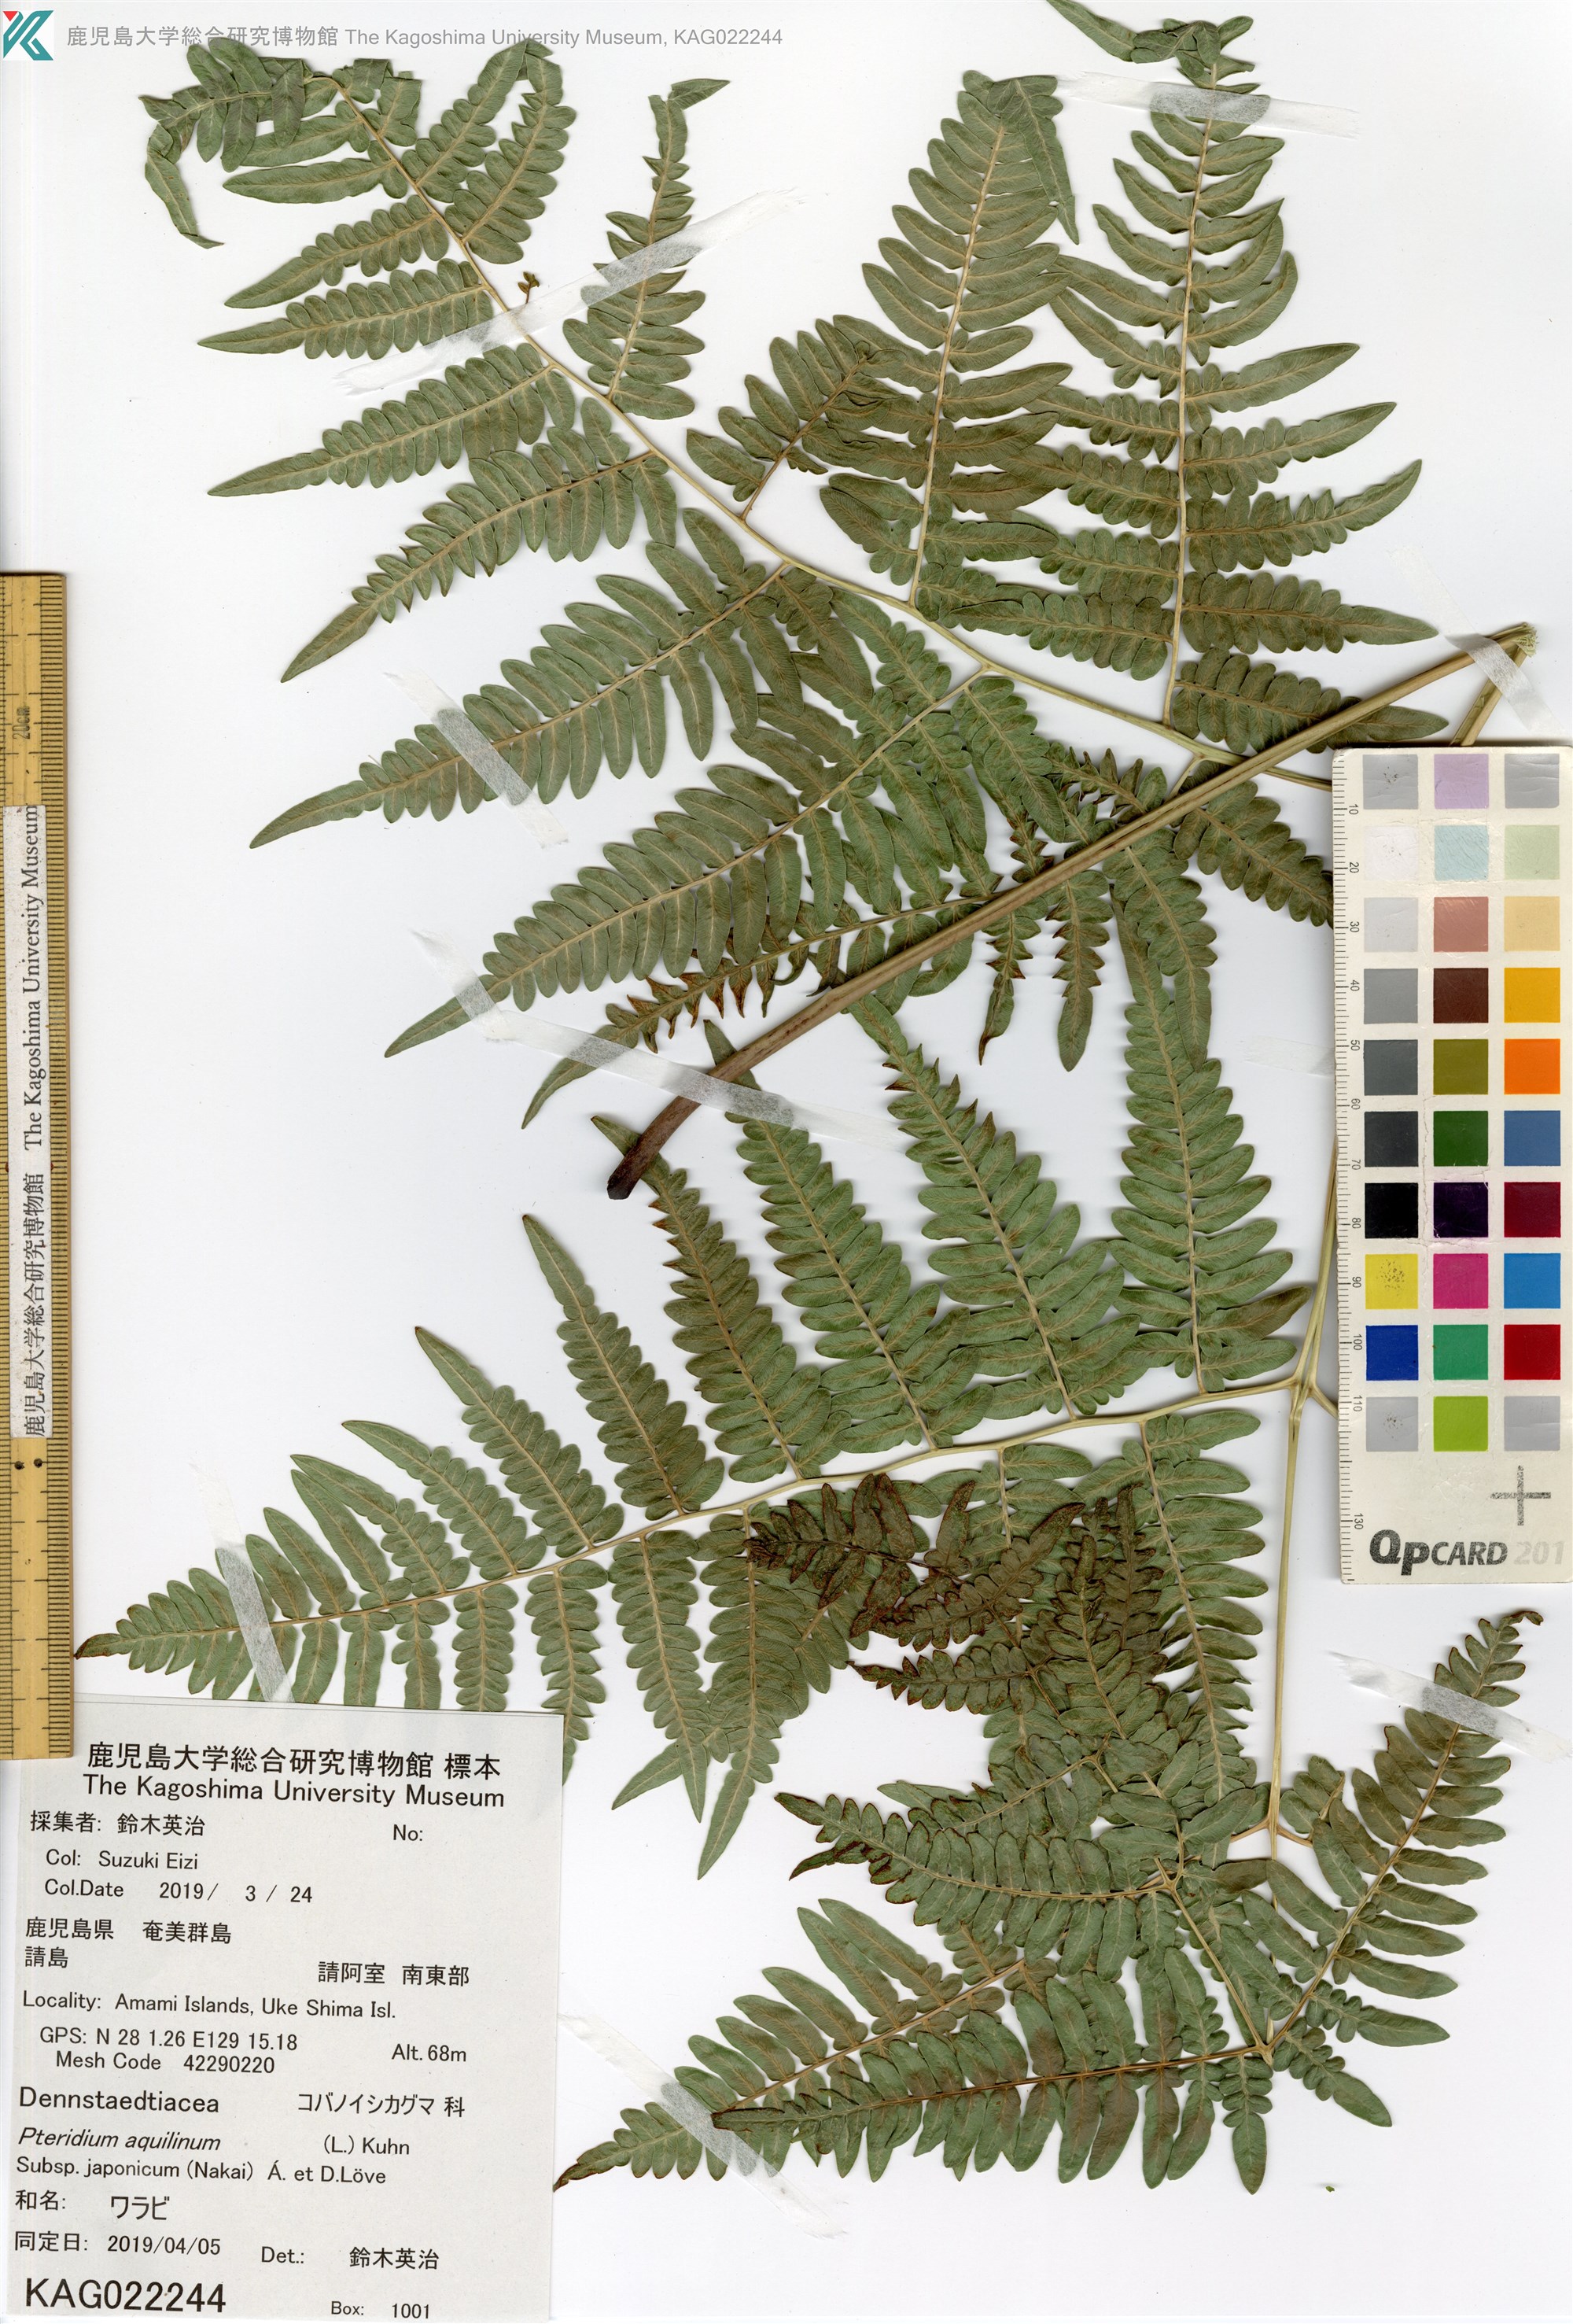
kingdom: Plantae
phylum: Tracheophyta
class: Polypodiopsida
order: Polypodiales
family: Dennstaedtiaceae
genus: Pteridium
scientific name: Pteridium aquilinum
